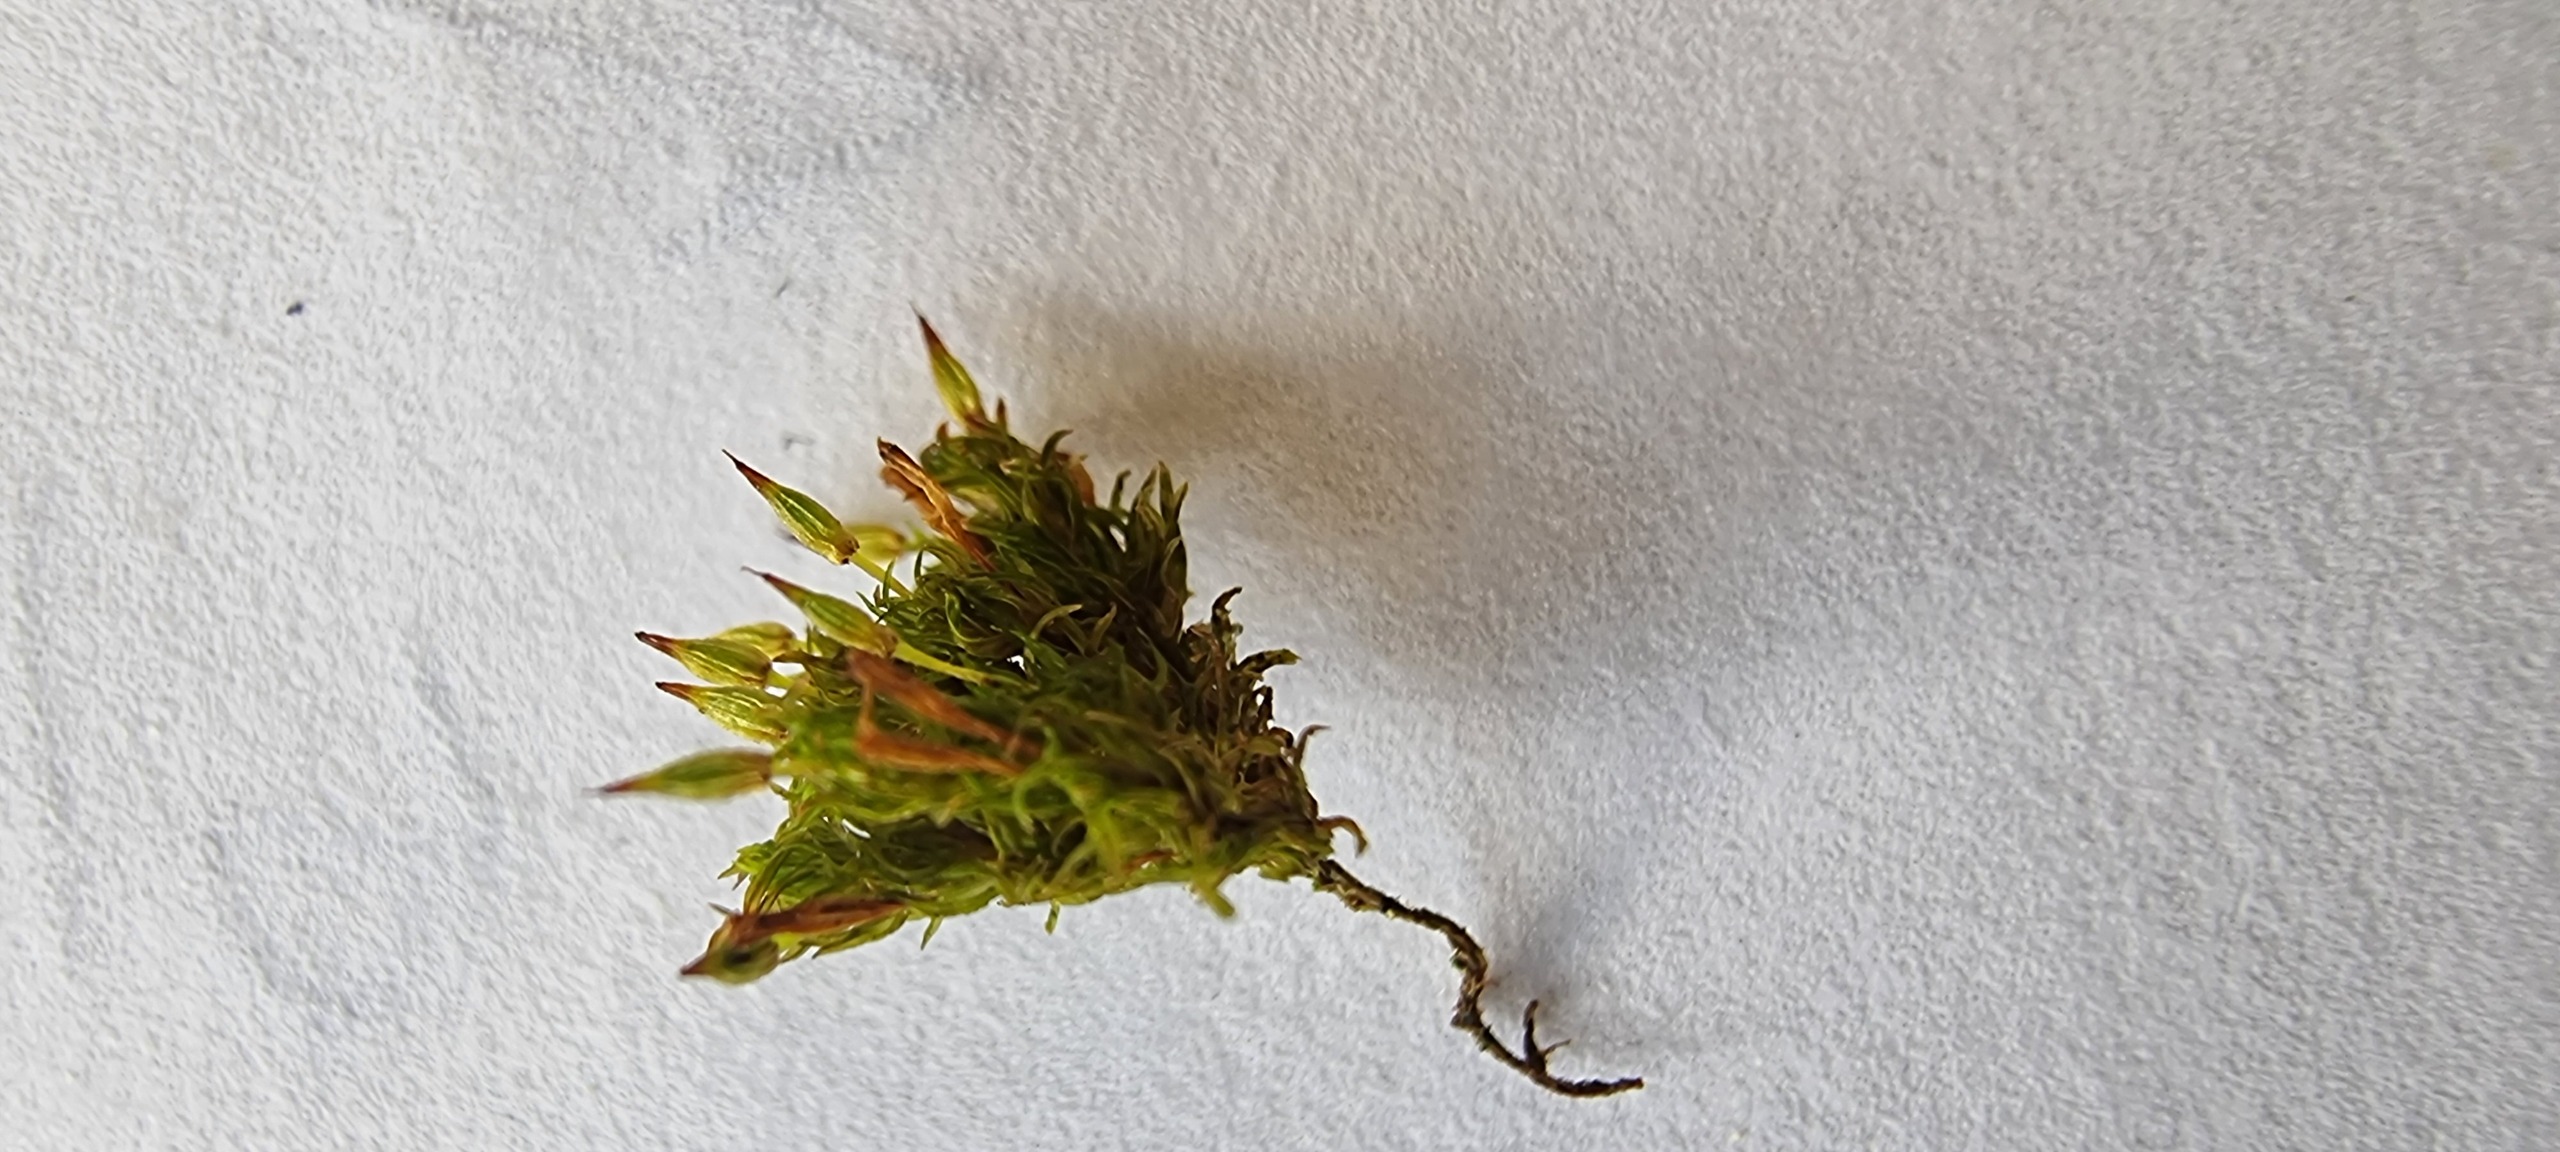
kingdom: Plantae
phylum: Bryophyta
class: Bryopsida
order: Orthotrichales
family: Orthotrichaceae
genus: Orthotrichum
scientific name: Orthotrichum pulchellum
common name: Smuk furehætte
